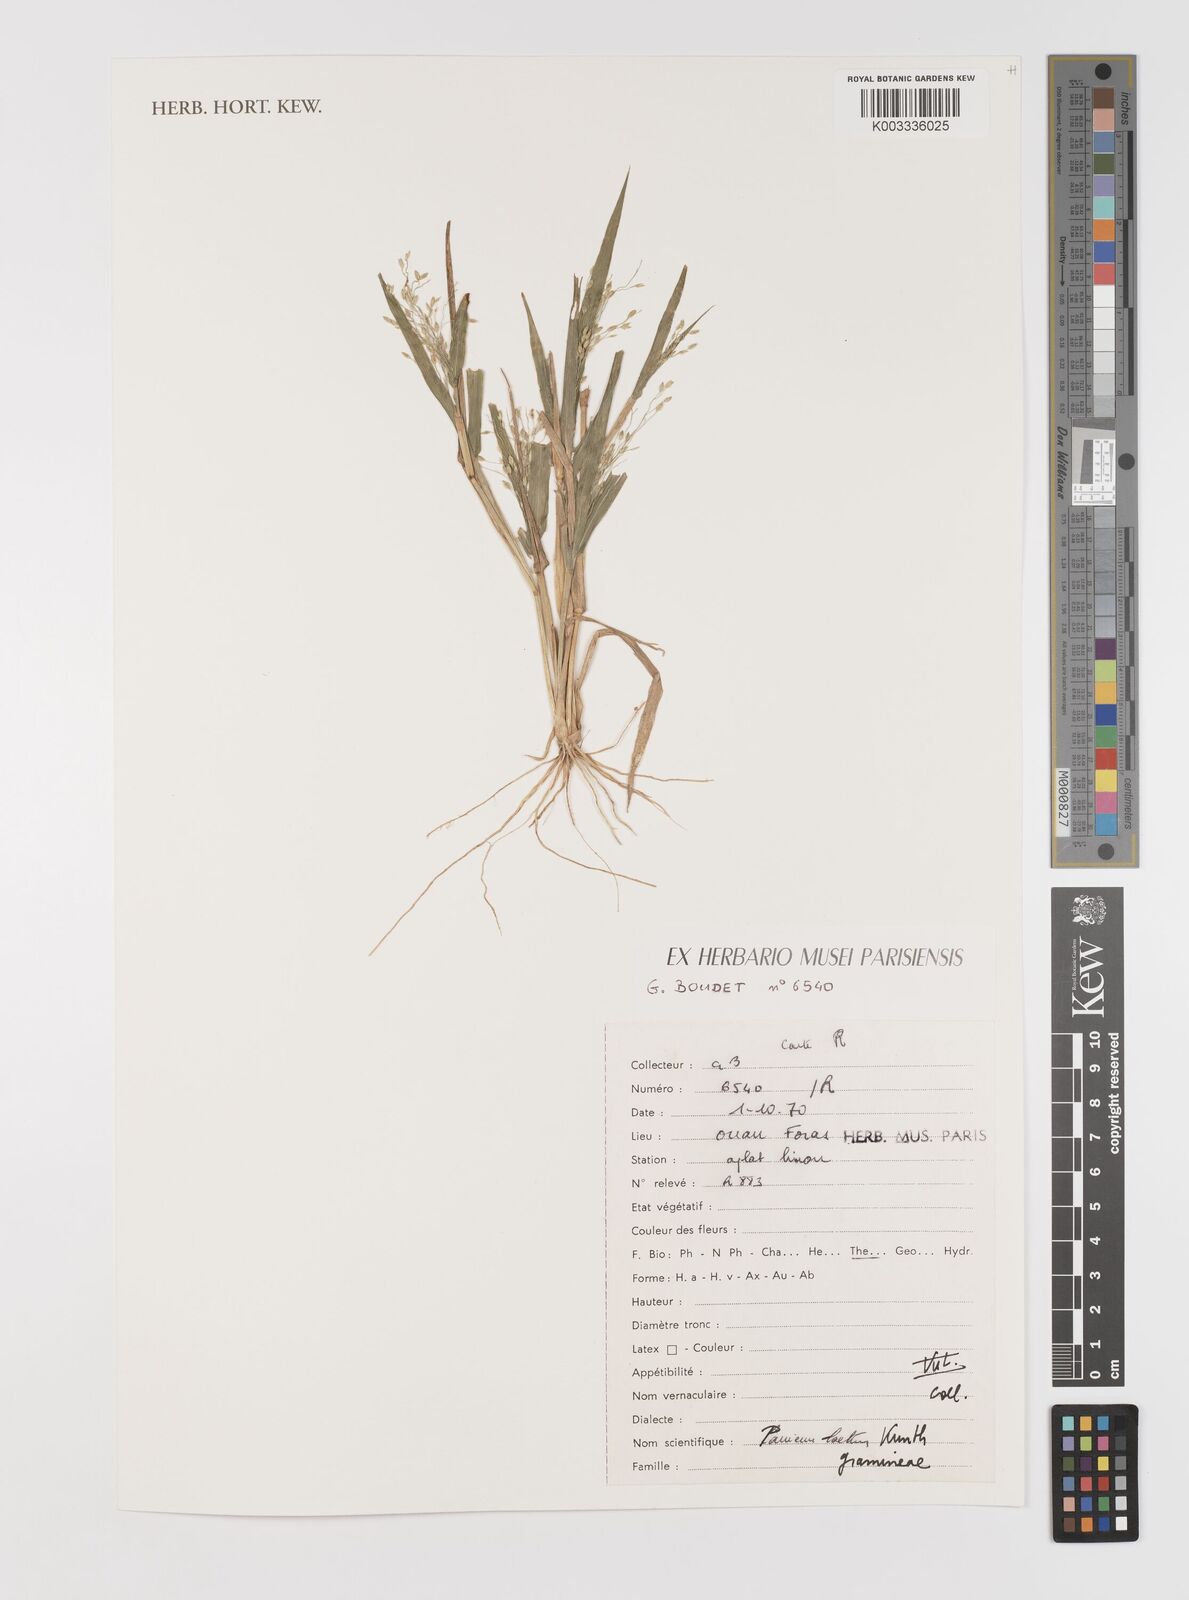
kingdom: Plantae
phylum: Tracheophyta
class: Liliopsida
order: Poales
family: Poaceae
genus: Panicum
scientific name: Panicum laetum
